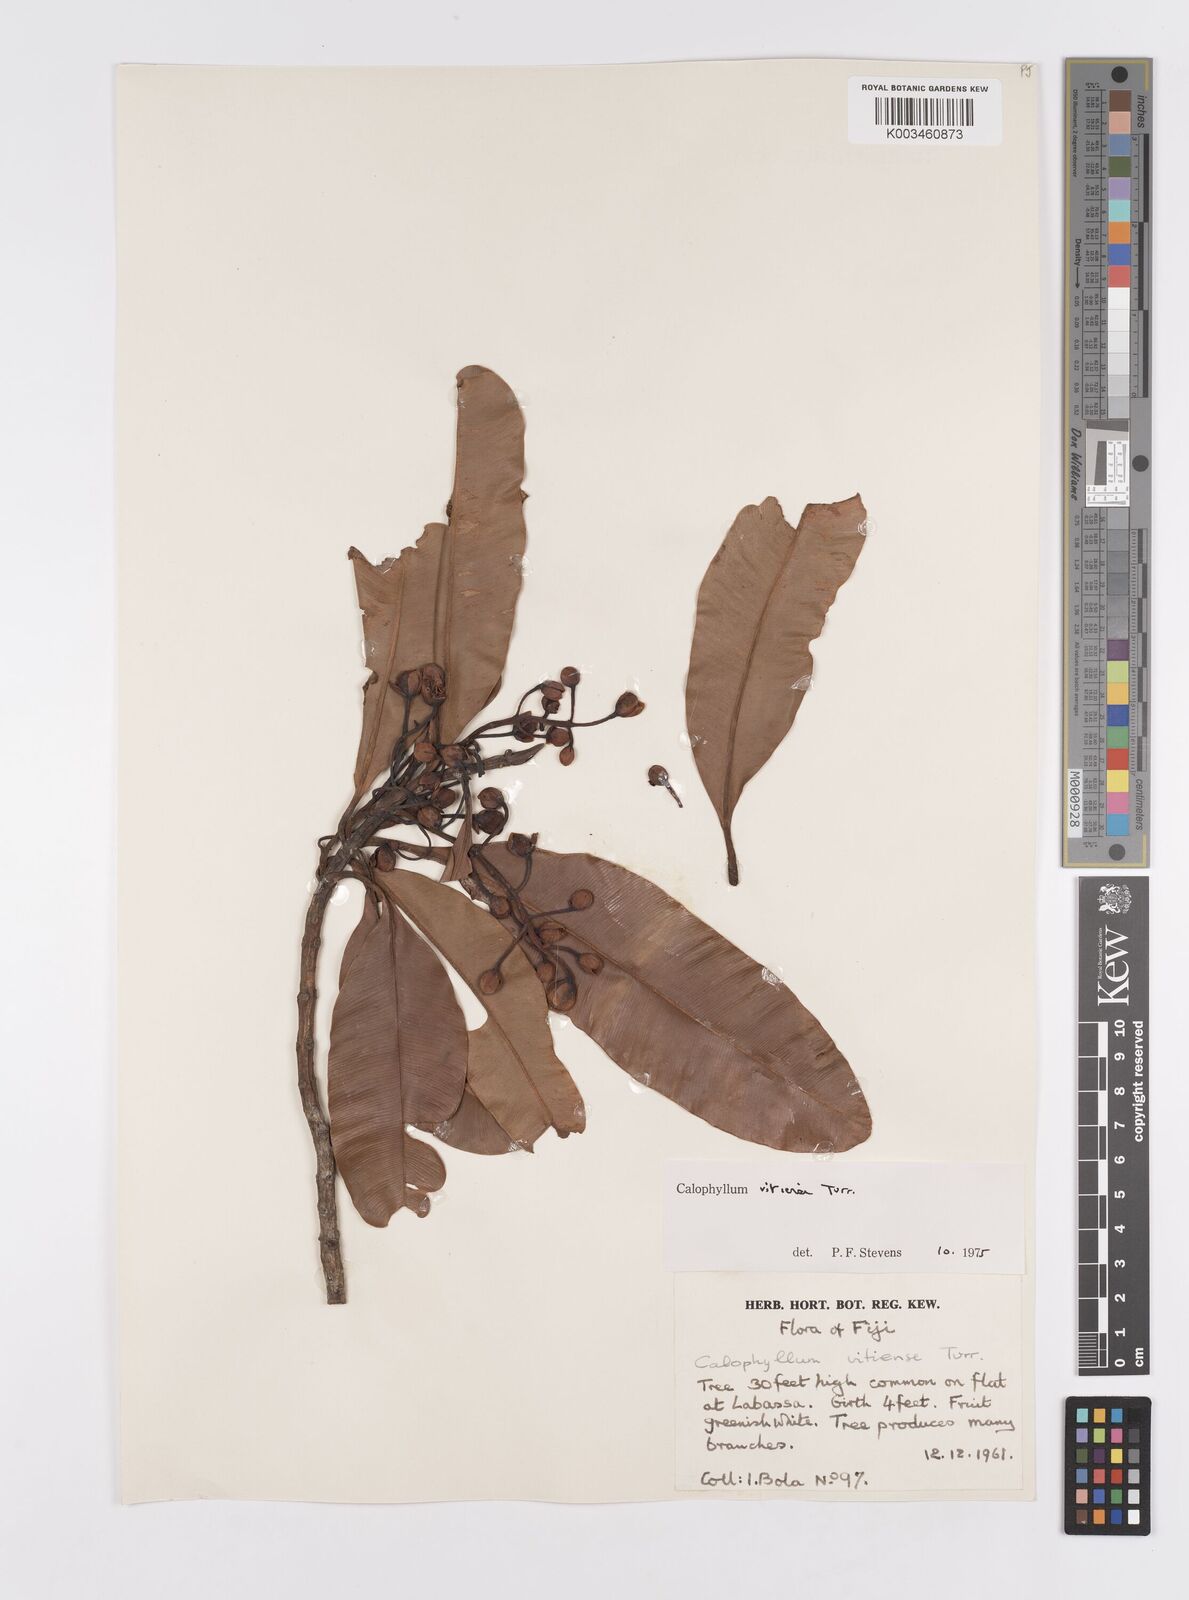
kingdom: Plantae
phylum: Tracheophyta
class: Magnoliopsida
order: Malpighiales
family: Calophyllaceae
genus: Calophyllum
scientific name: Calophyllum vitiense
